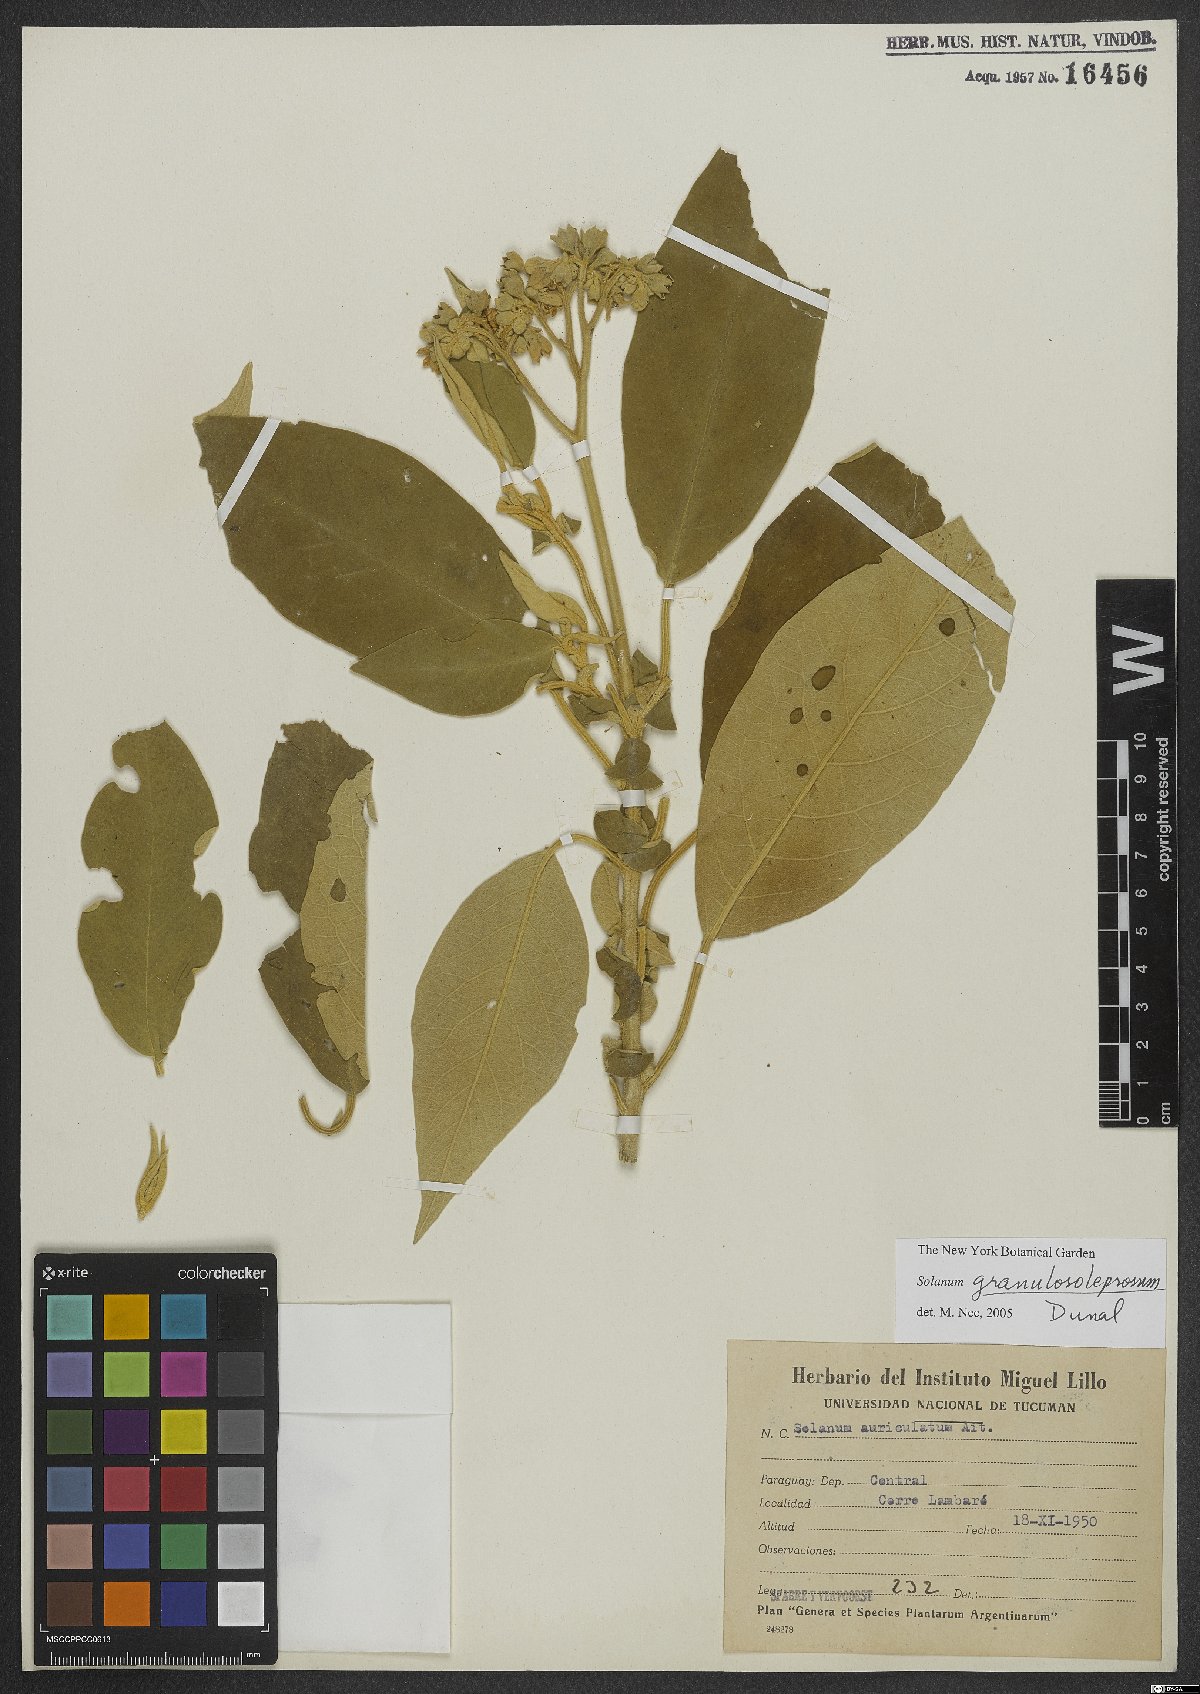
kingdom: Plantae
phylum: Tracheophyta
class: Magnoliopsida
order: Solanales
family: Solanaceae
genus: Solanum
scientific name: Solanum granulosoleprosum
